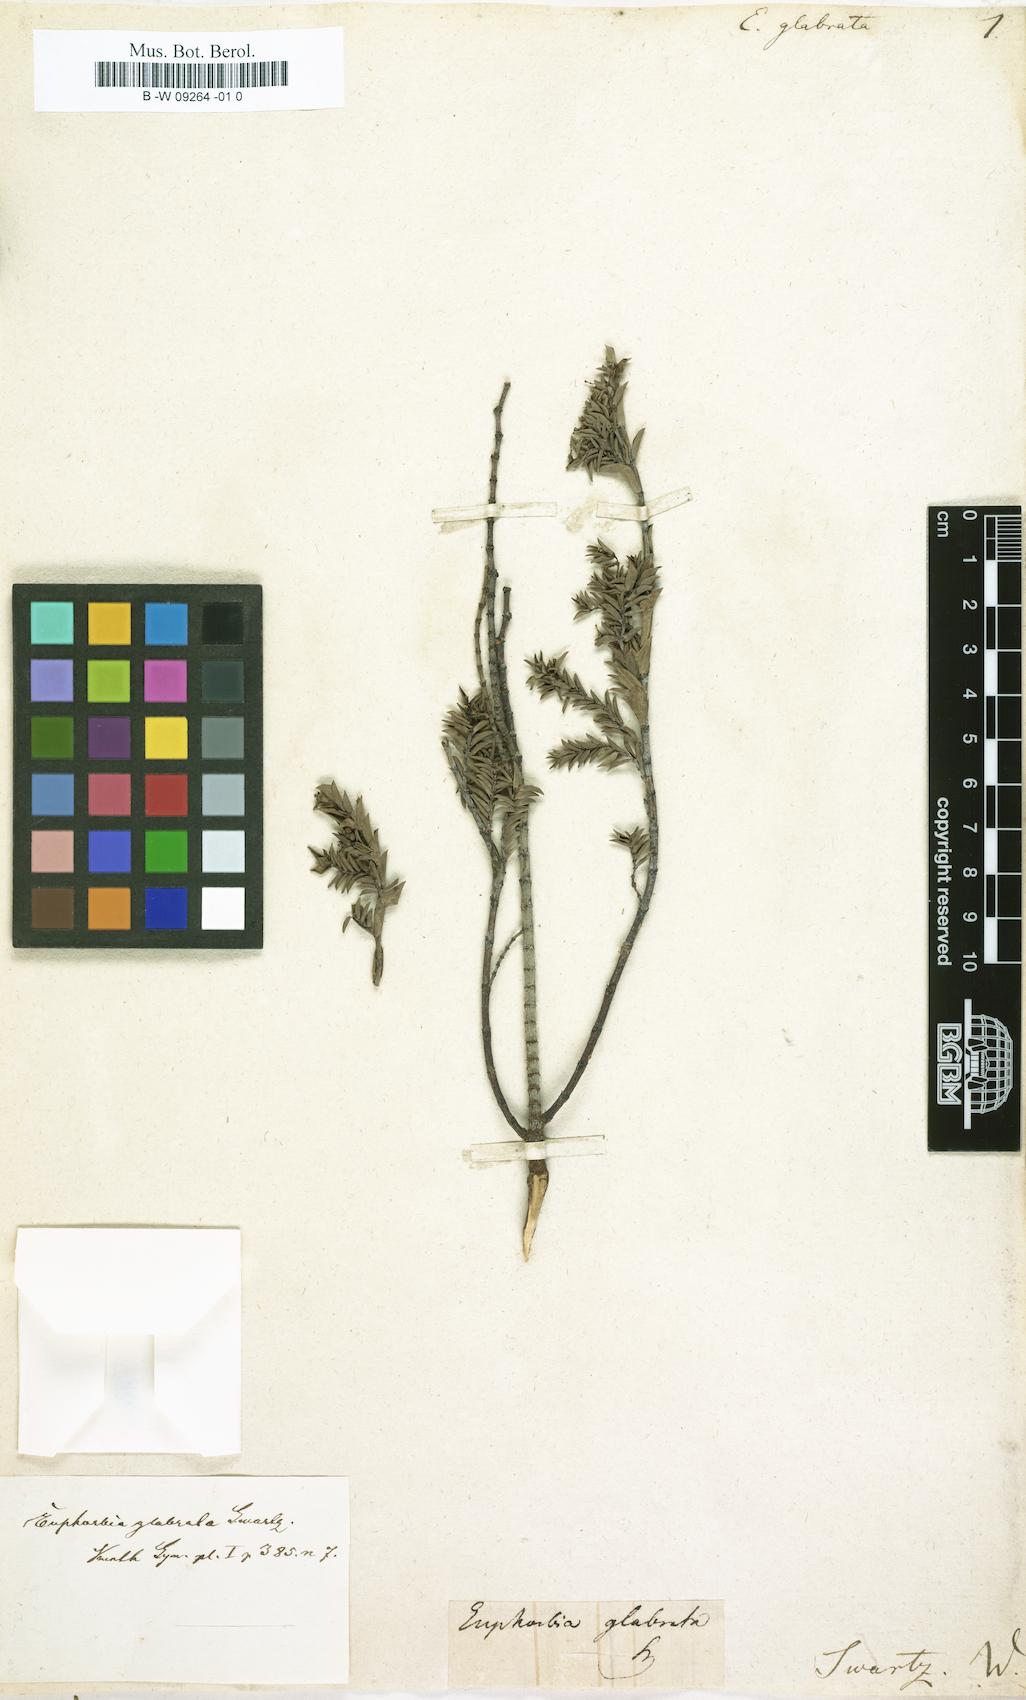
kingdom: Plantae
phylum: Tracheophyta
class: Magnoliopsida
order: Malpighiales
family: Euphorbiaceae
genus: Euphorbia
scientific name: Euphorbia mesembryanthemifolia
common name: Coastal beach sandmat
